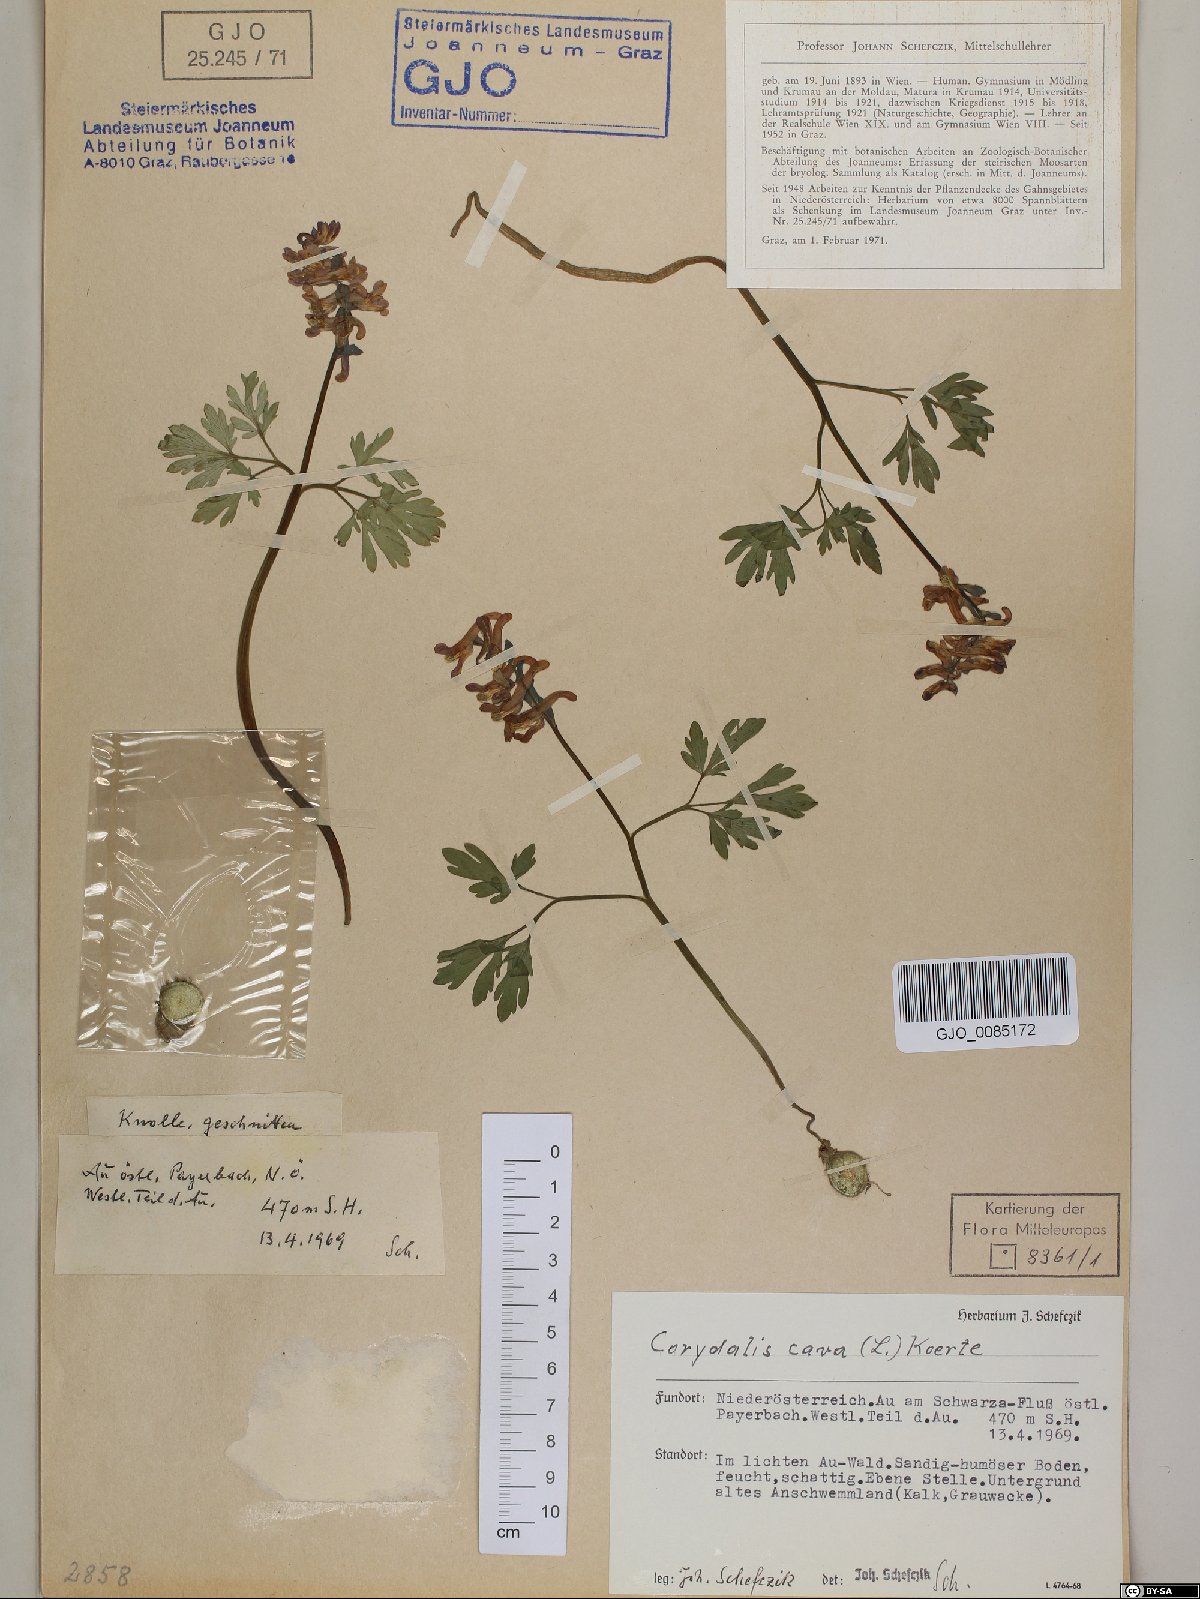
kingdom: Plantae
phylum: Tracheophyta
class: Magnoliopsida
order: Ranunculales
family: Papaveraceae
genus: Corydalis
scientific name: Corydalis cava
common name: Hollowroot
